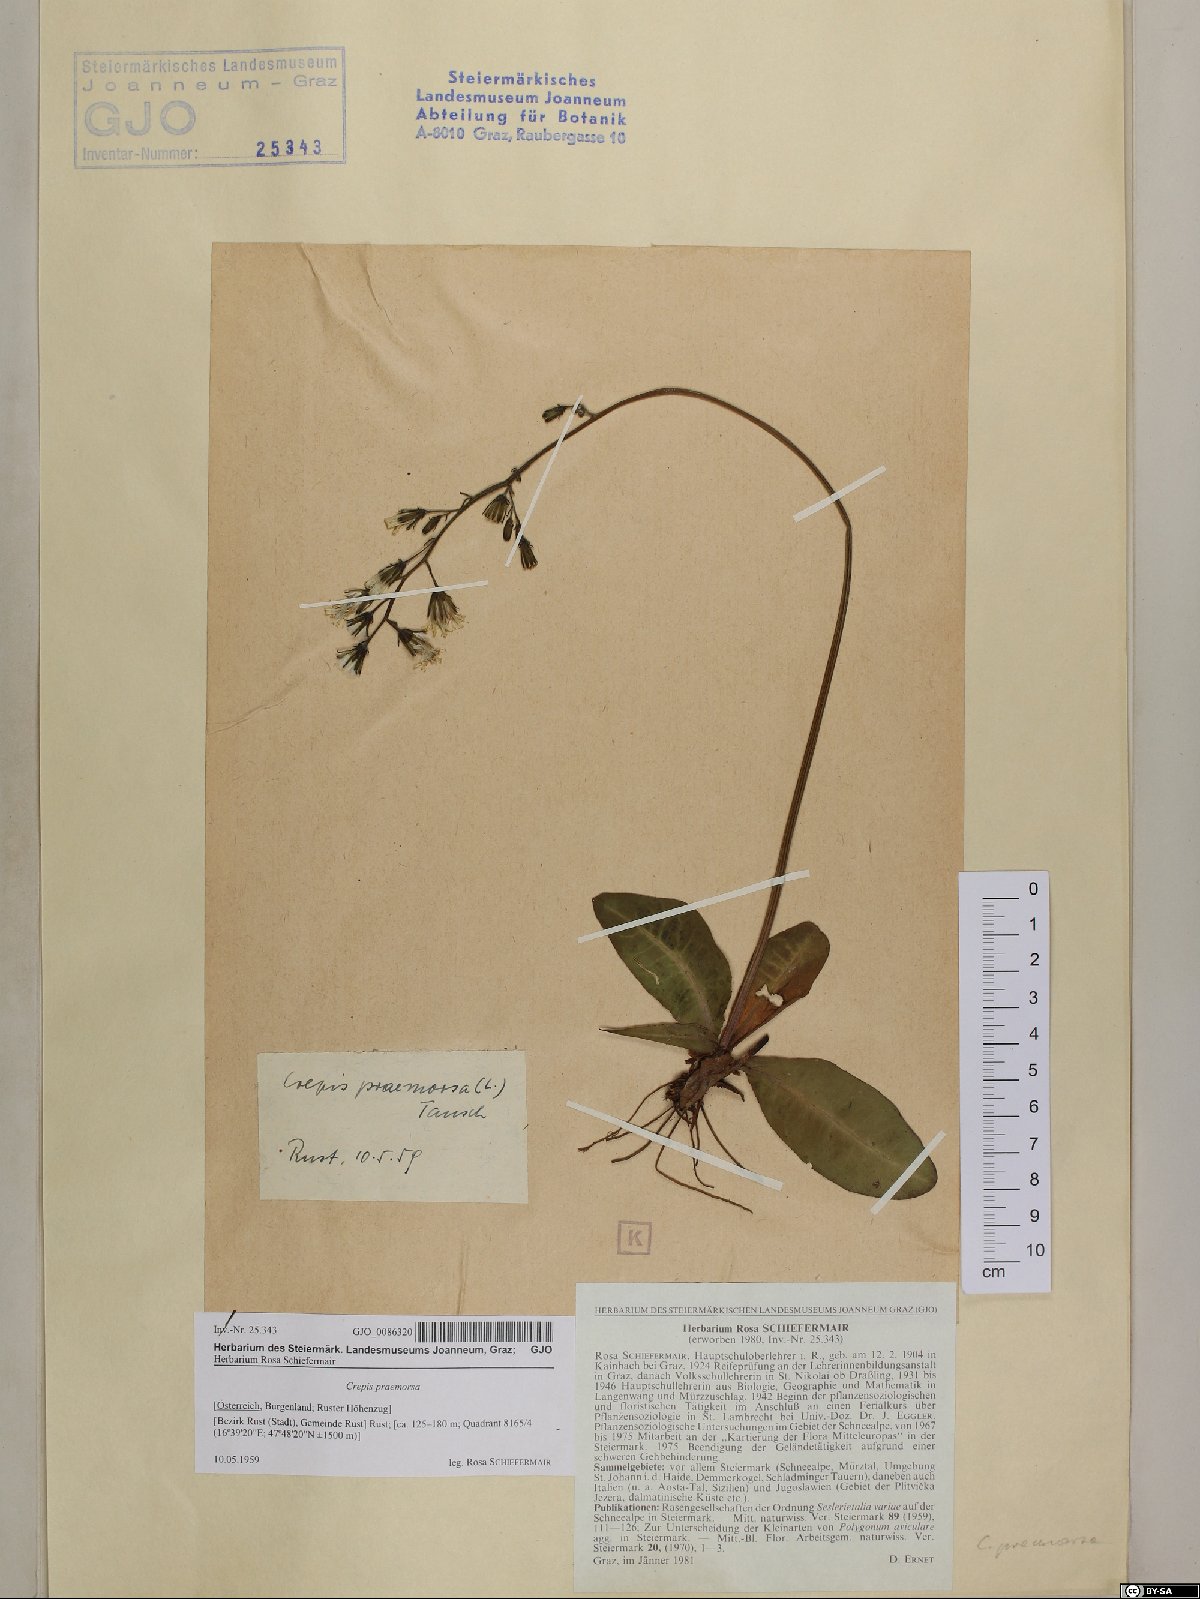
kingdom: Plantae
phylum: Tracheophyta
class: Magnoliopsida
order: Asterales
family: Asteraceae
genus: Crepis
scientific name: Crepis praemorsa
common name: Leafless hawk's-beard
